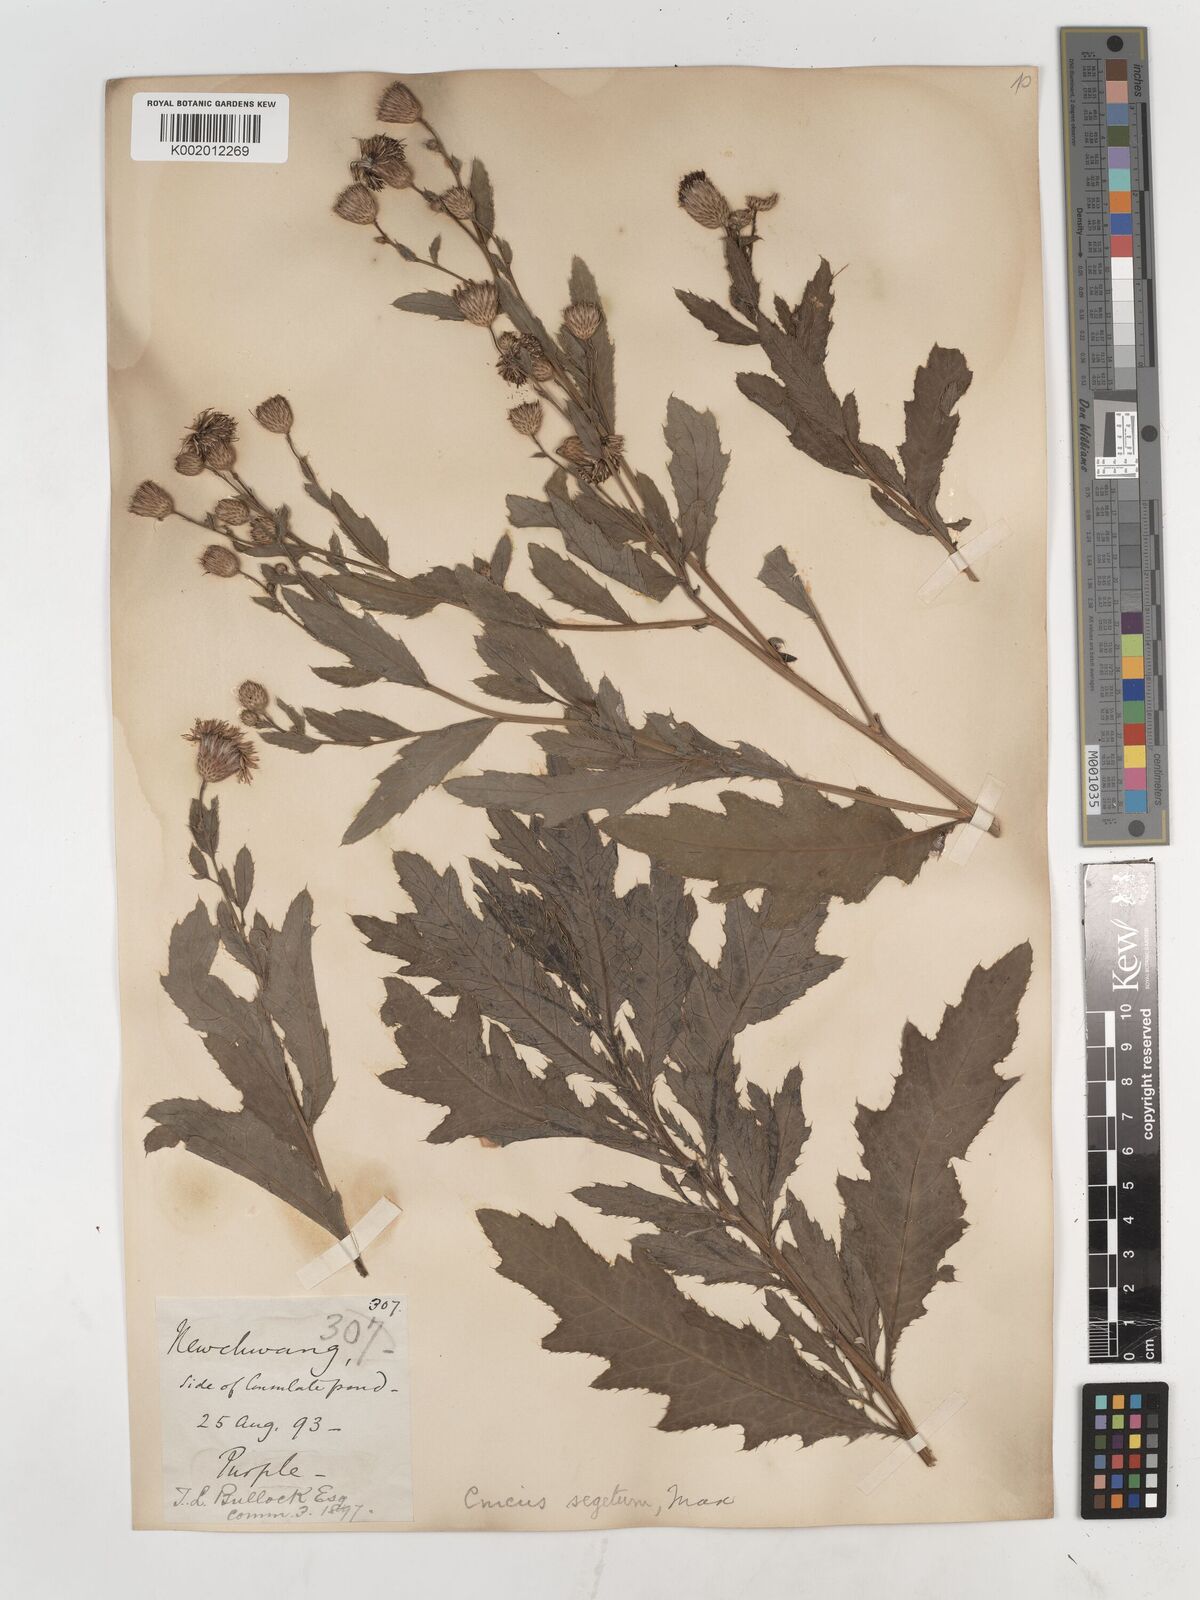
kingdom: Plantae
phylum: Tracheophyta
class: Magnoliopsida
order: Asterales
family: Asteraceae
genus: Cirsium
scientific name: Cirsium arvense
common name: Creeping thistle
